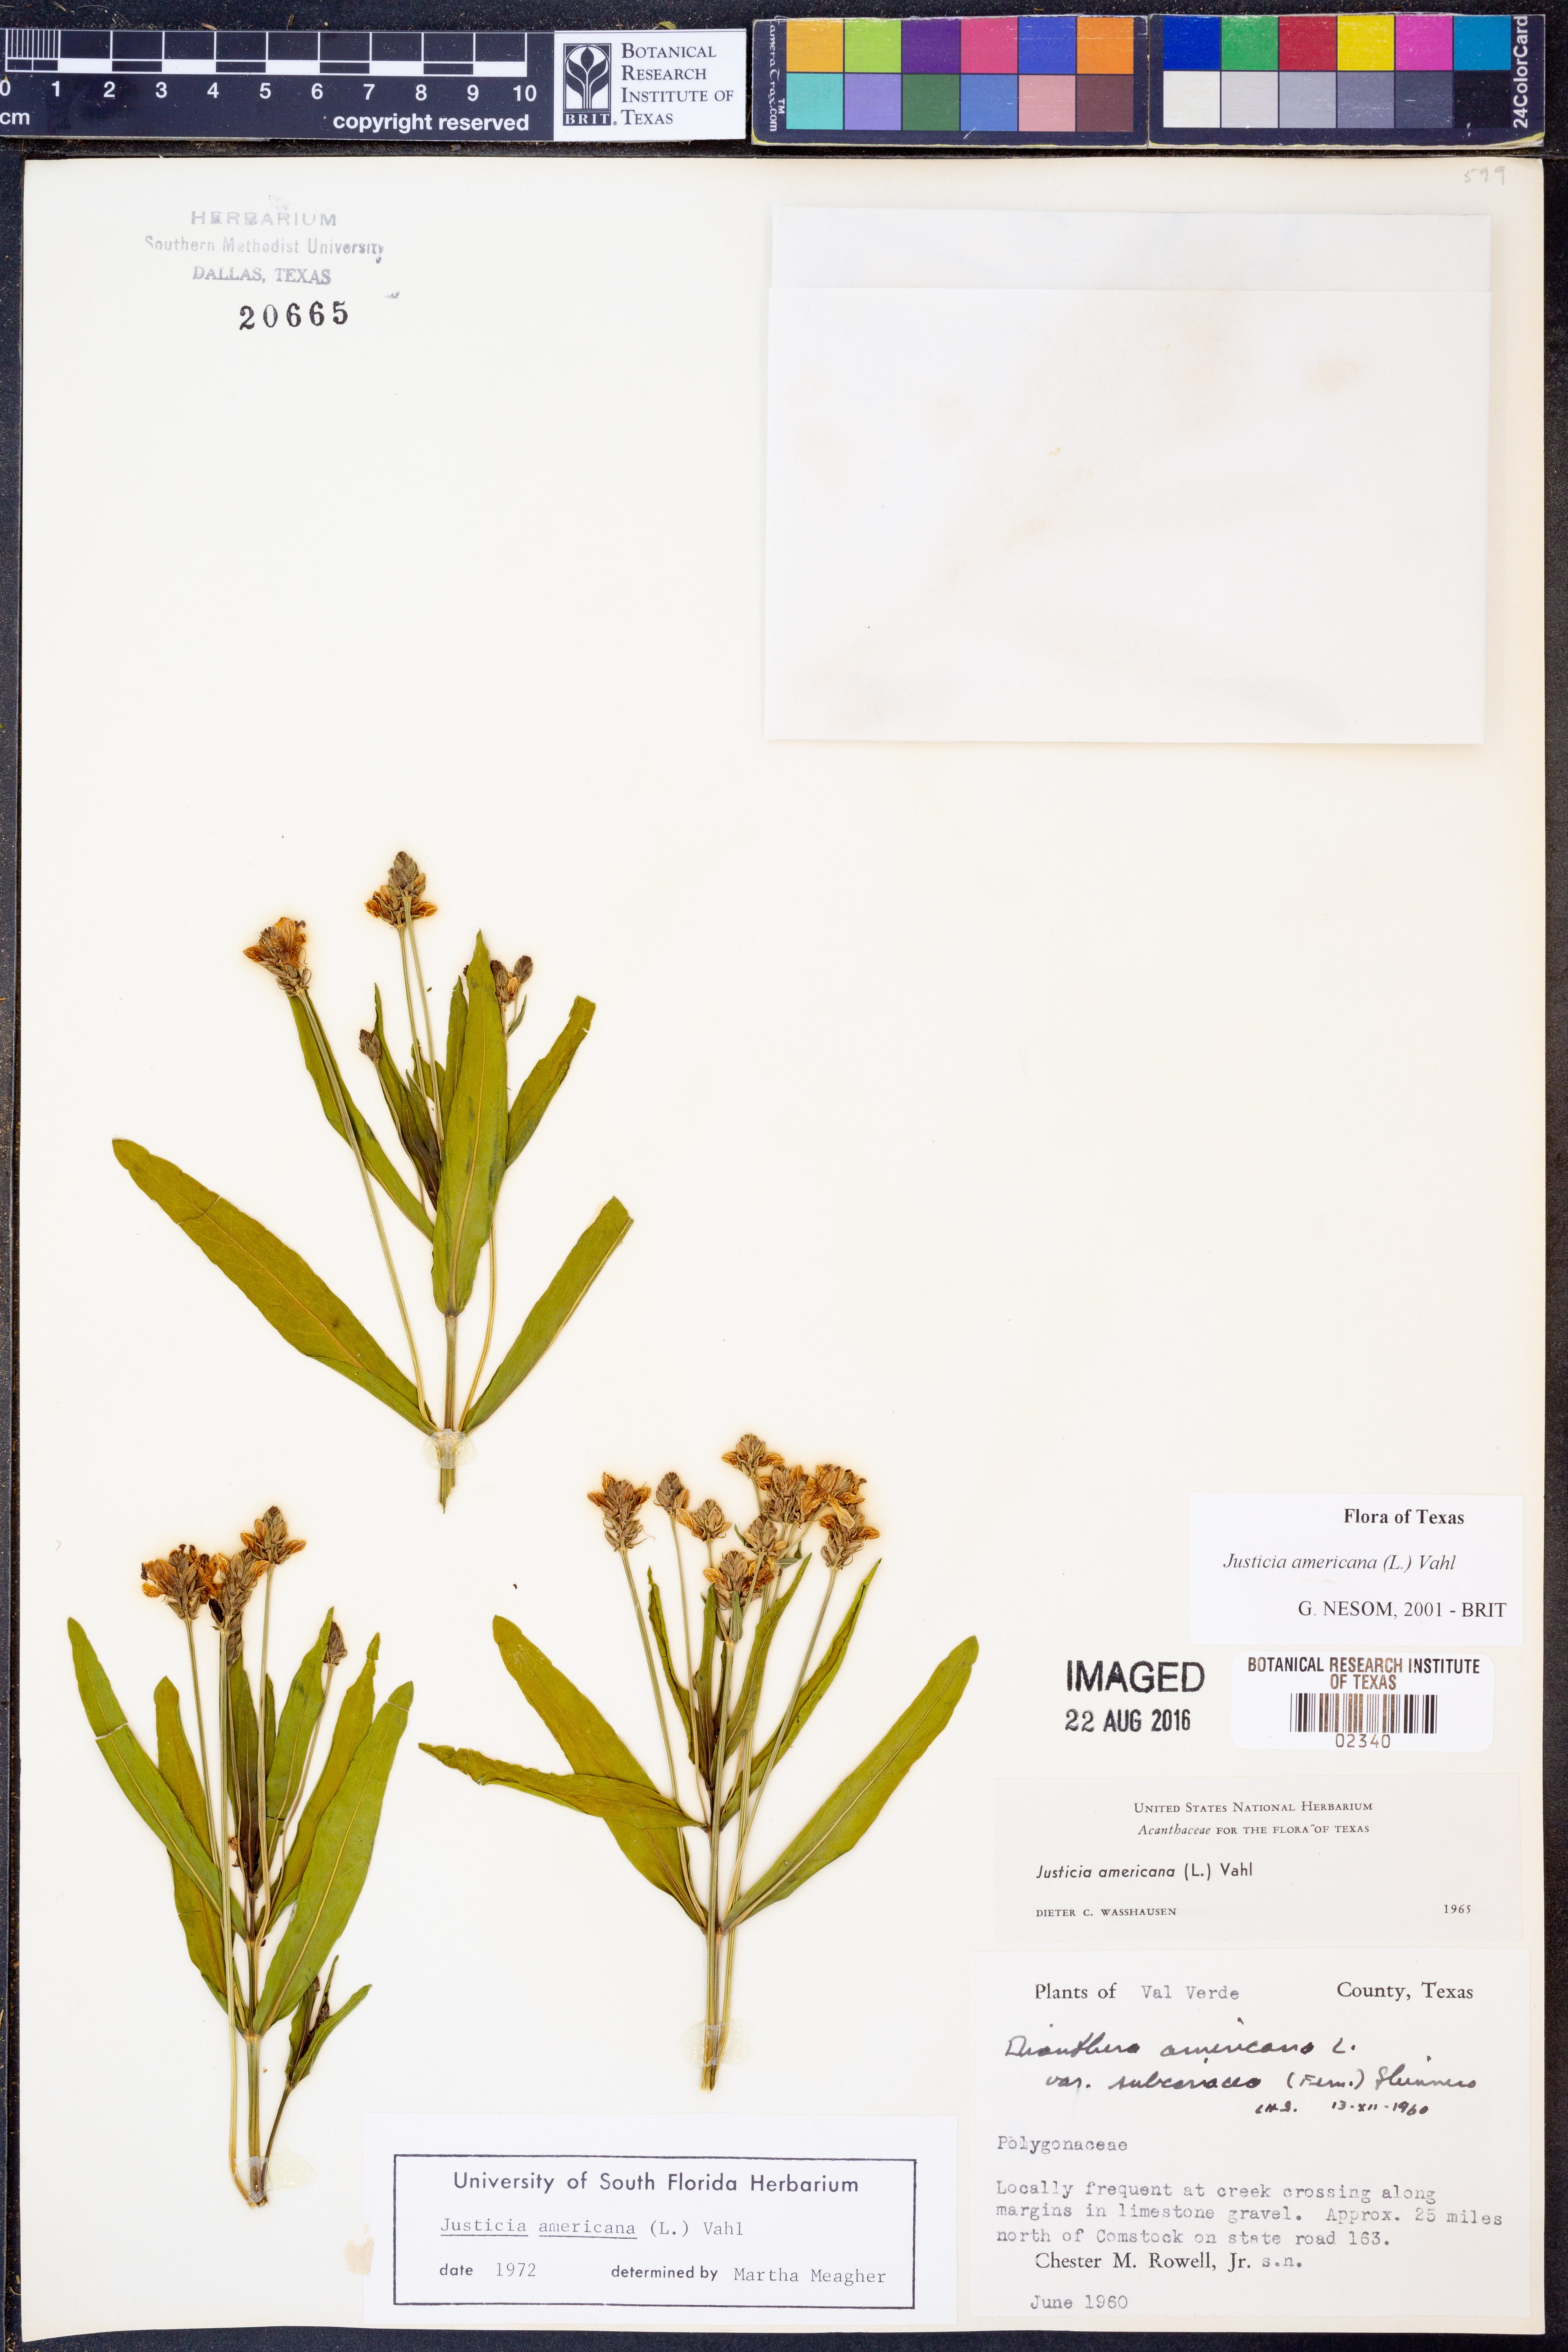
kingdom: Plantae
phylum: Tracheophyta
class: Magnoliopsida
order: Lamiales
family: Acanthaceae
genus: Dianthera
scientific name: Dianthera americana
